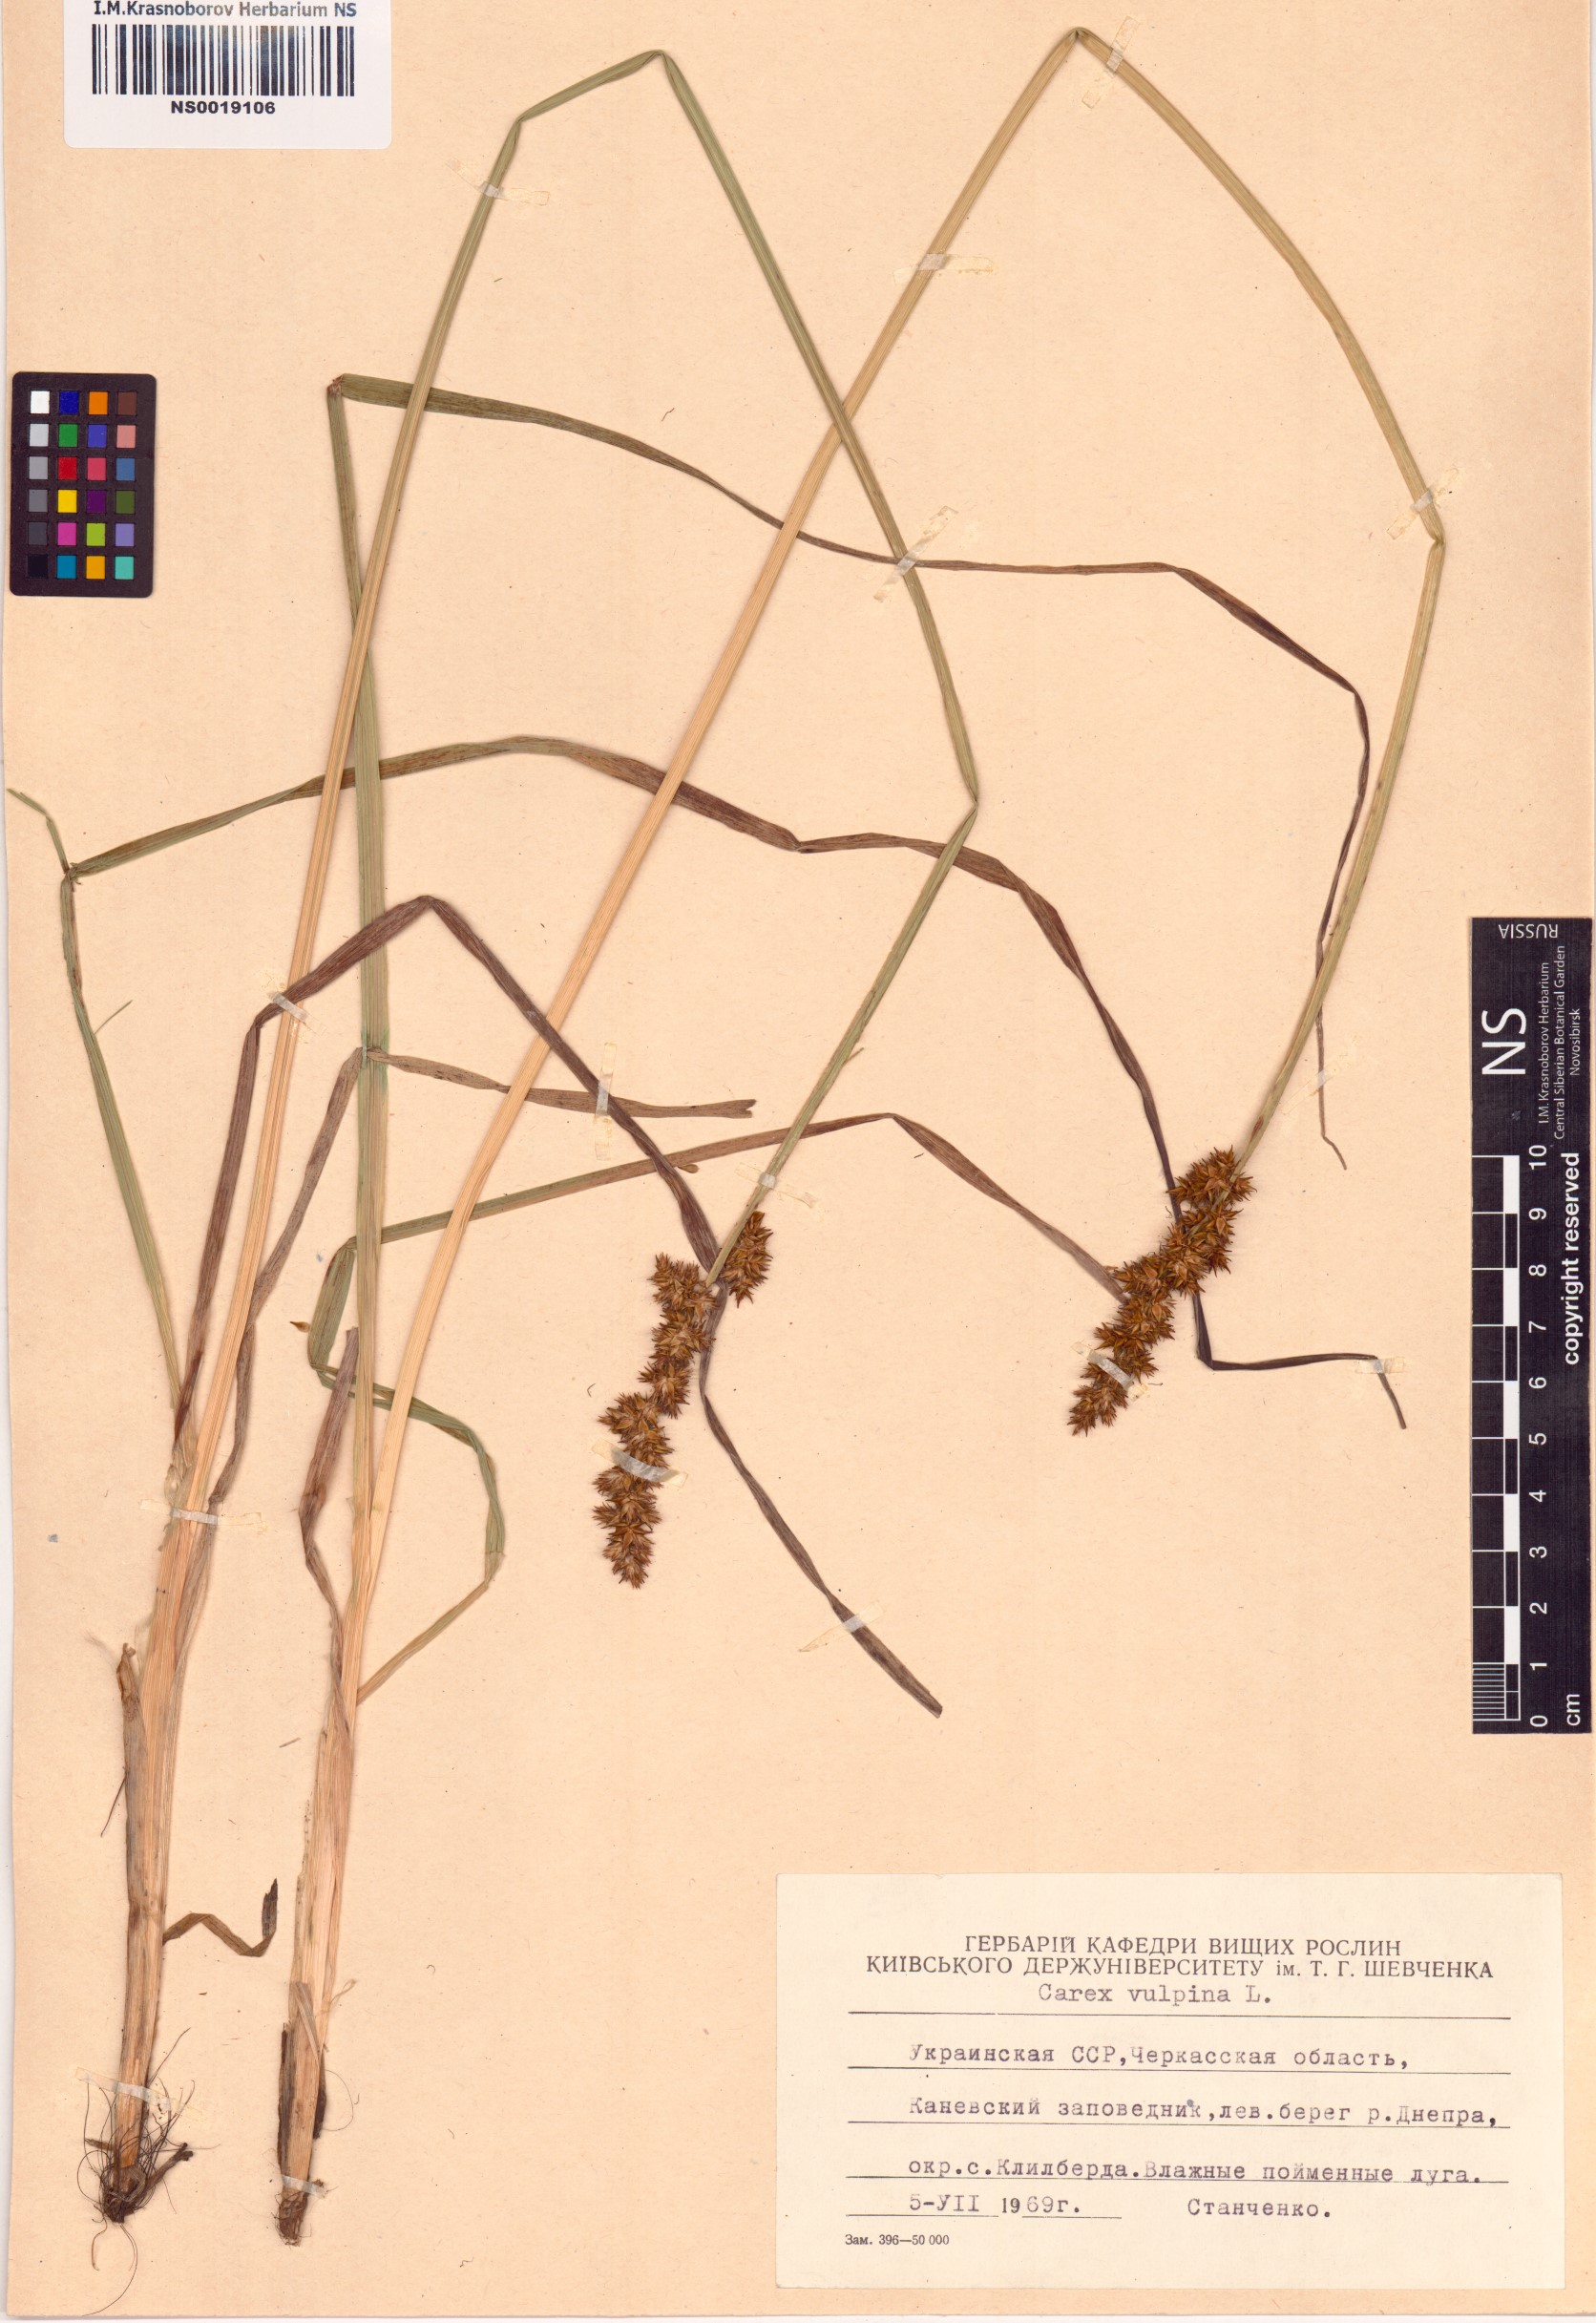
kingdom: Plantae
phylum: Tracheophyta
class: Liliopsida
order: Poales
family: Cyperaceae
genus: Carex
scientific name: Carex vulpina
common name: True fox-sedge
